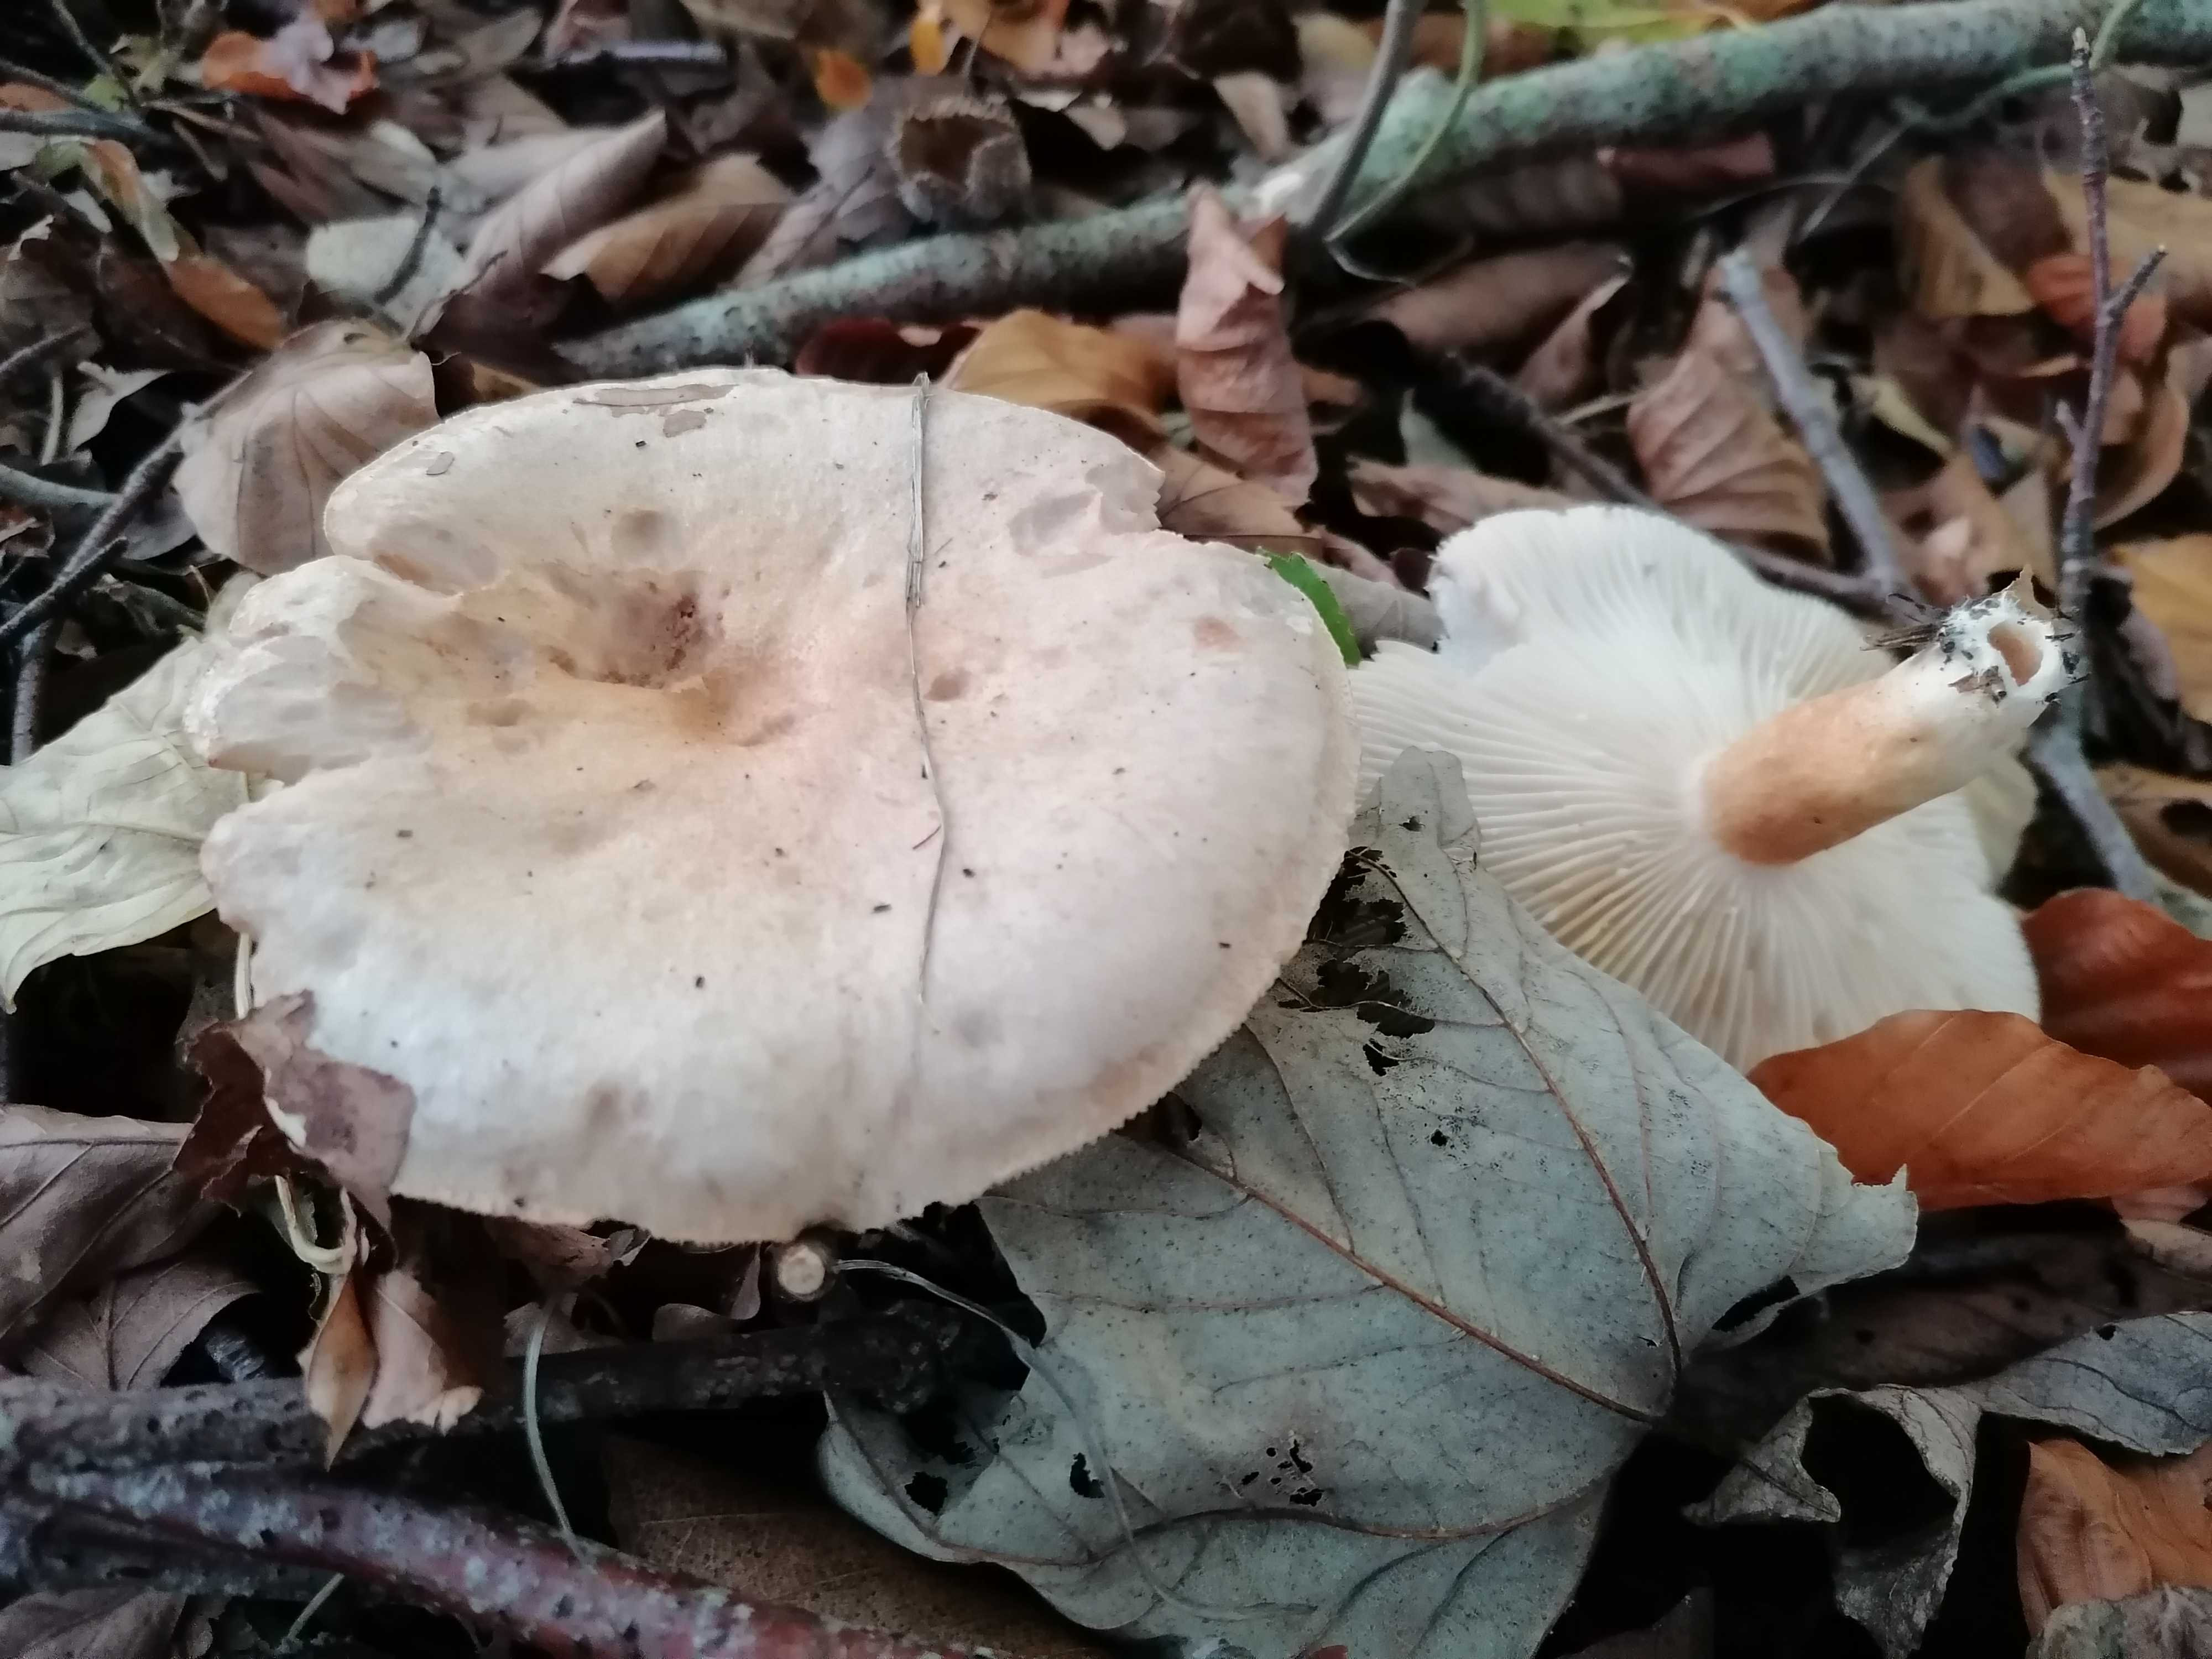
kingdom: Fungi
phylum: Basidiomycota
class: Agaricomycetes
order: Russulales
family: Russulaceae
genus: Lactarius
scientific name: Lactarius pallidus
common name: bleg mælkehat
